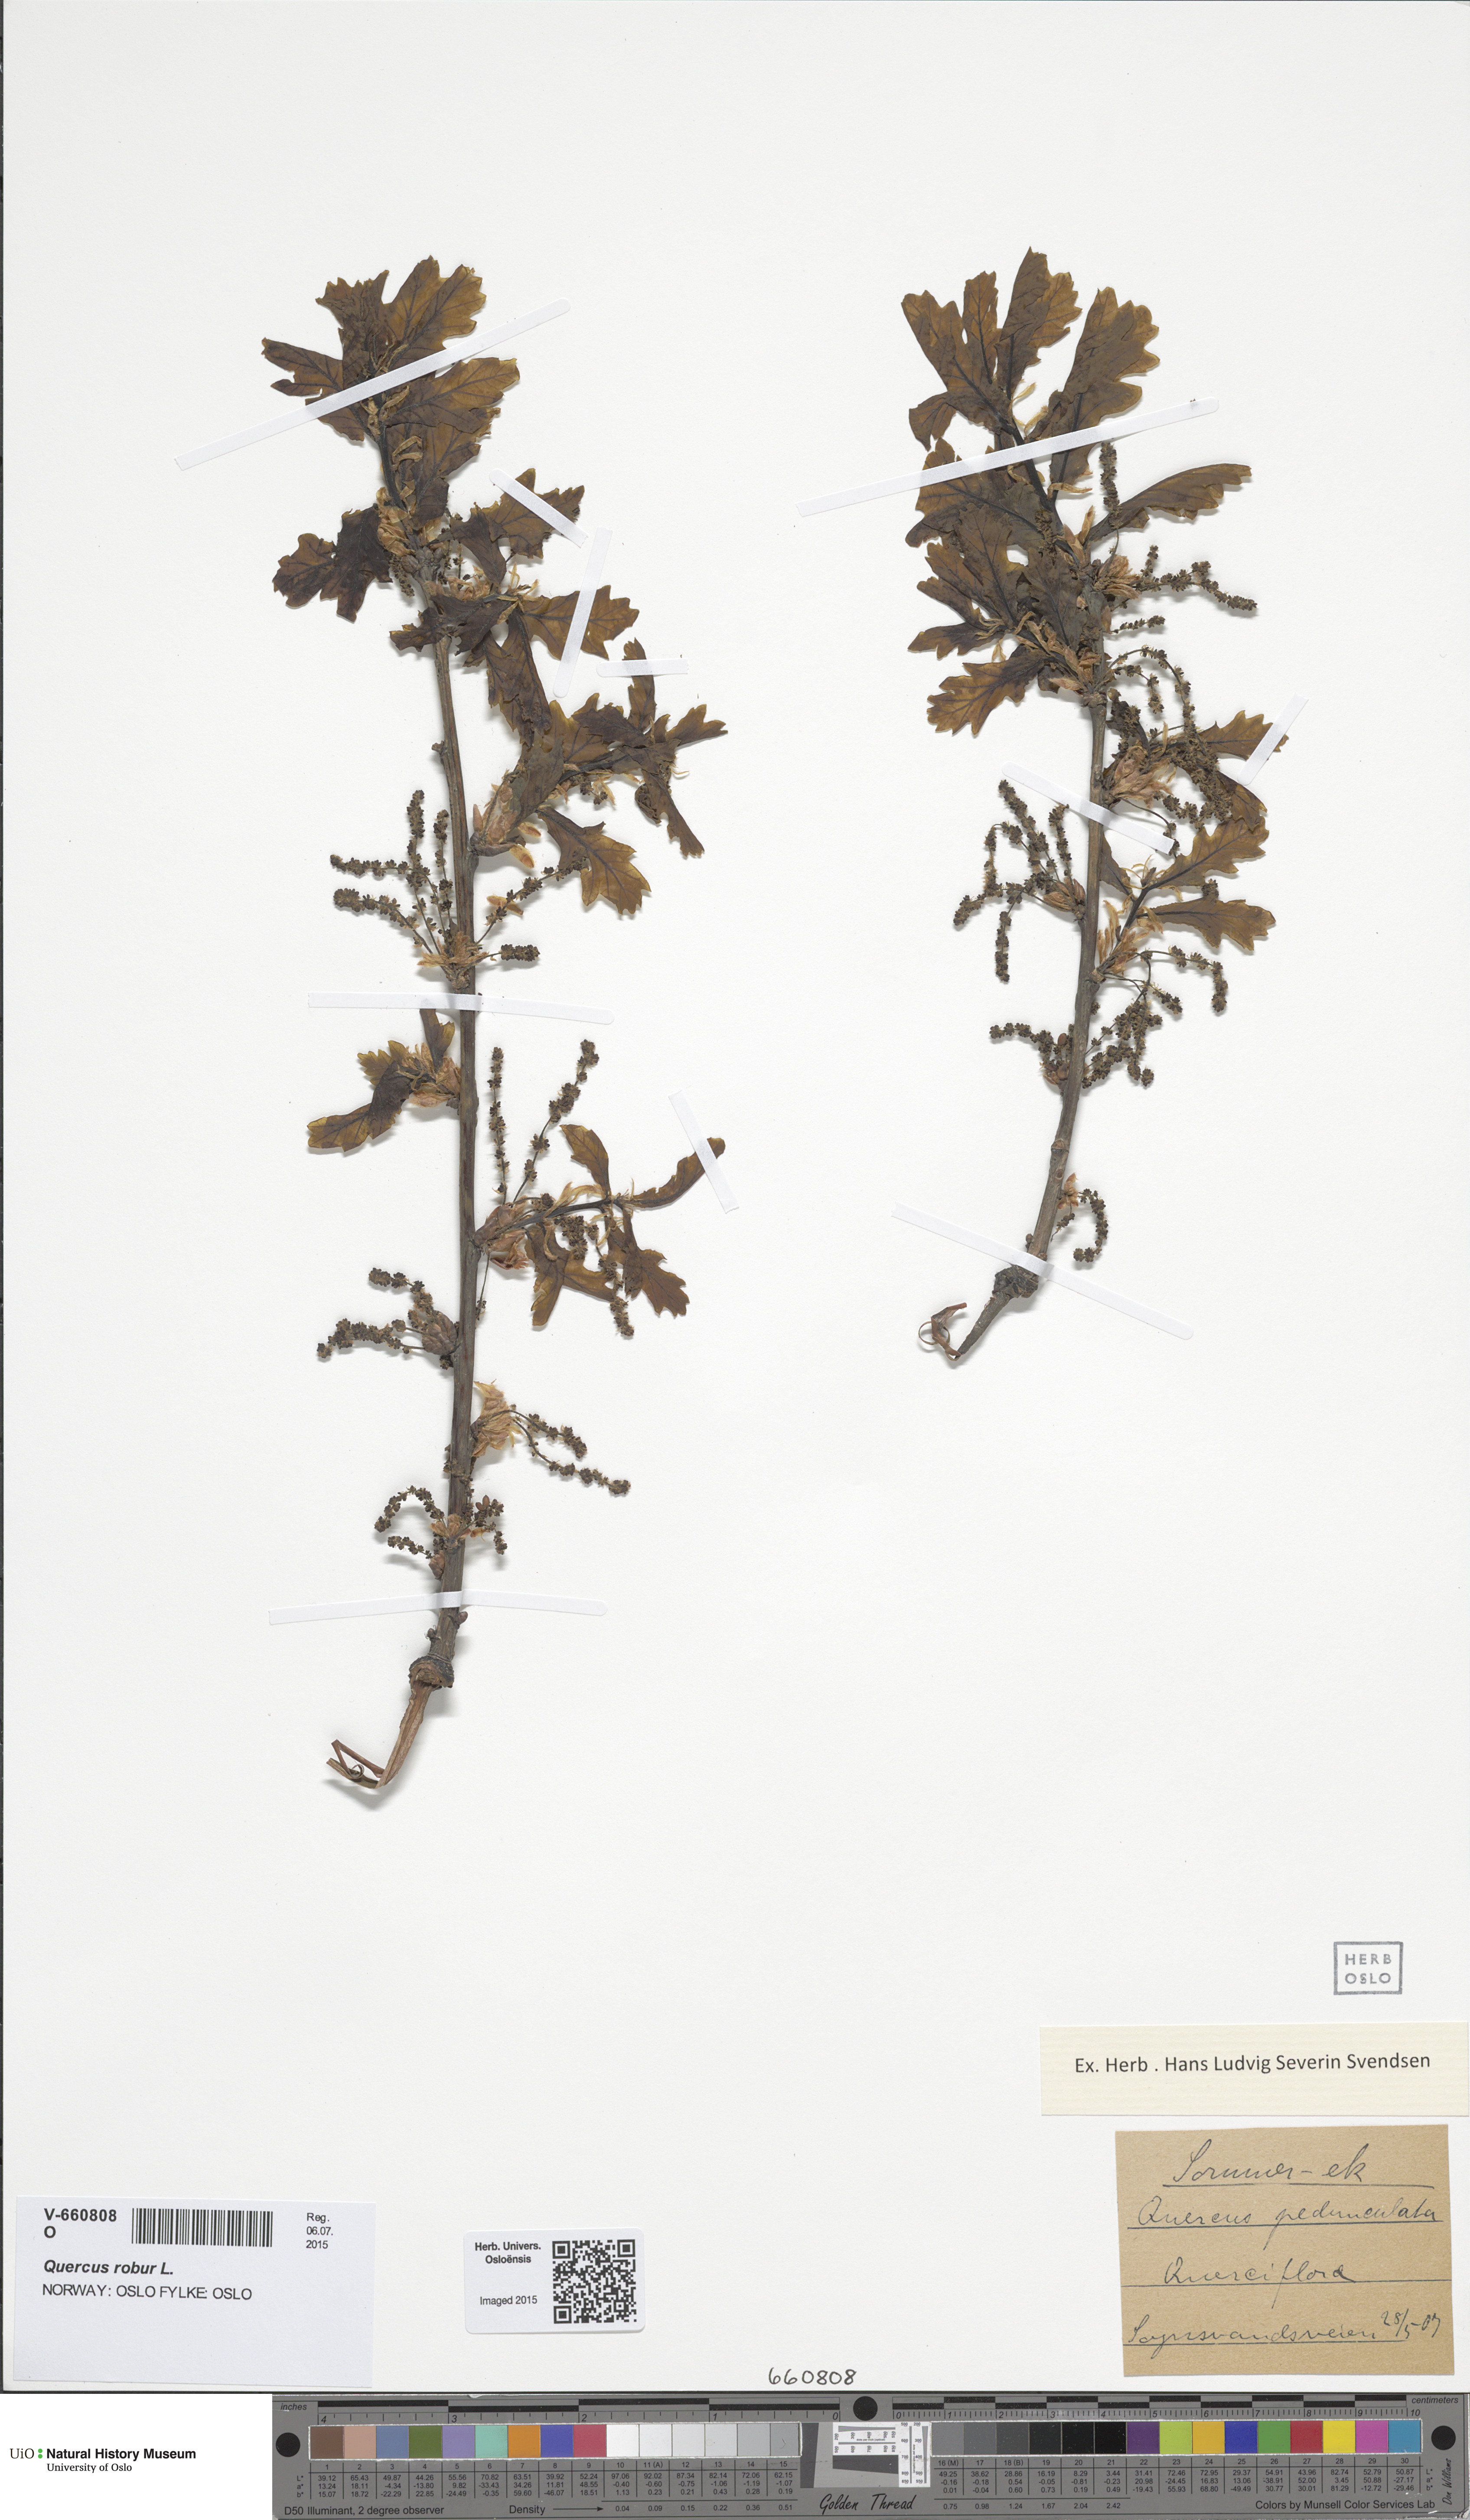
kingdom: Plantae
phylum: Tracheophyta
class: Magnoliopsida
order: Fagales
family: Fagaceae
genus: Quercus
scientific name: Quercus robur
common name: Pedunculate oak
